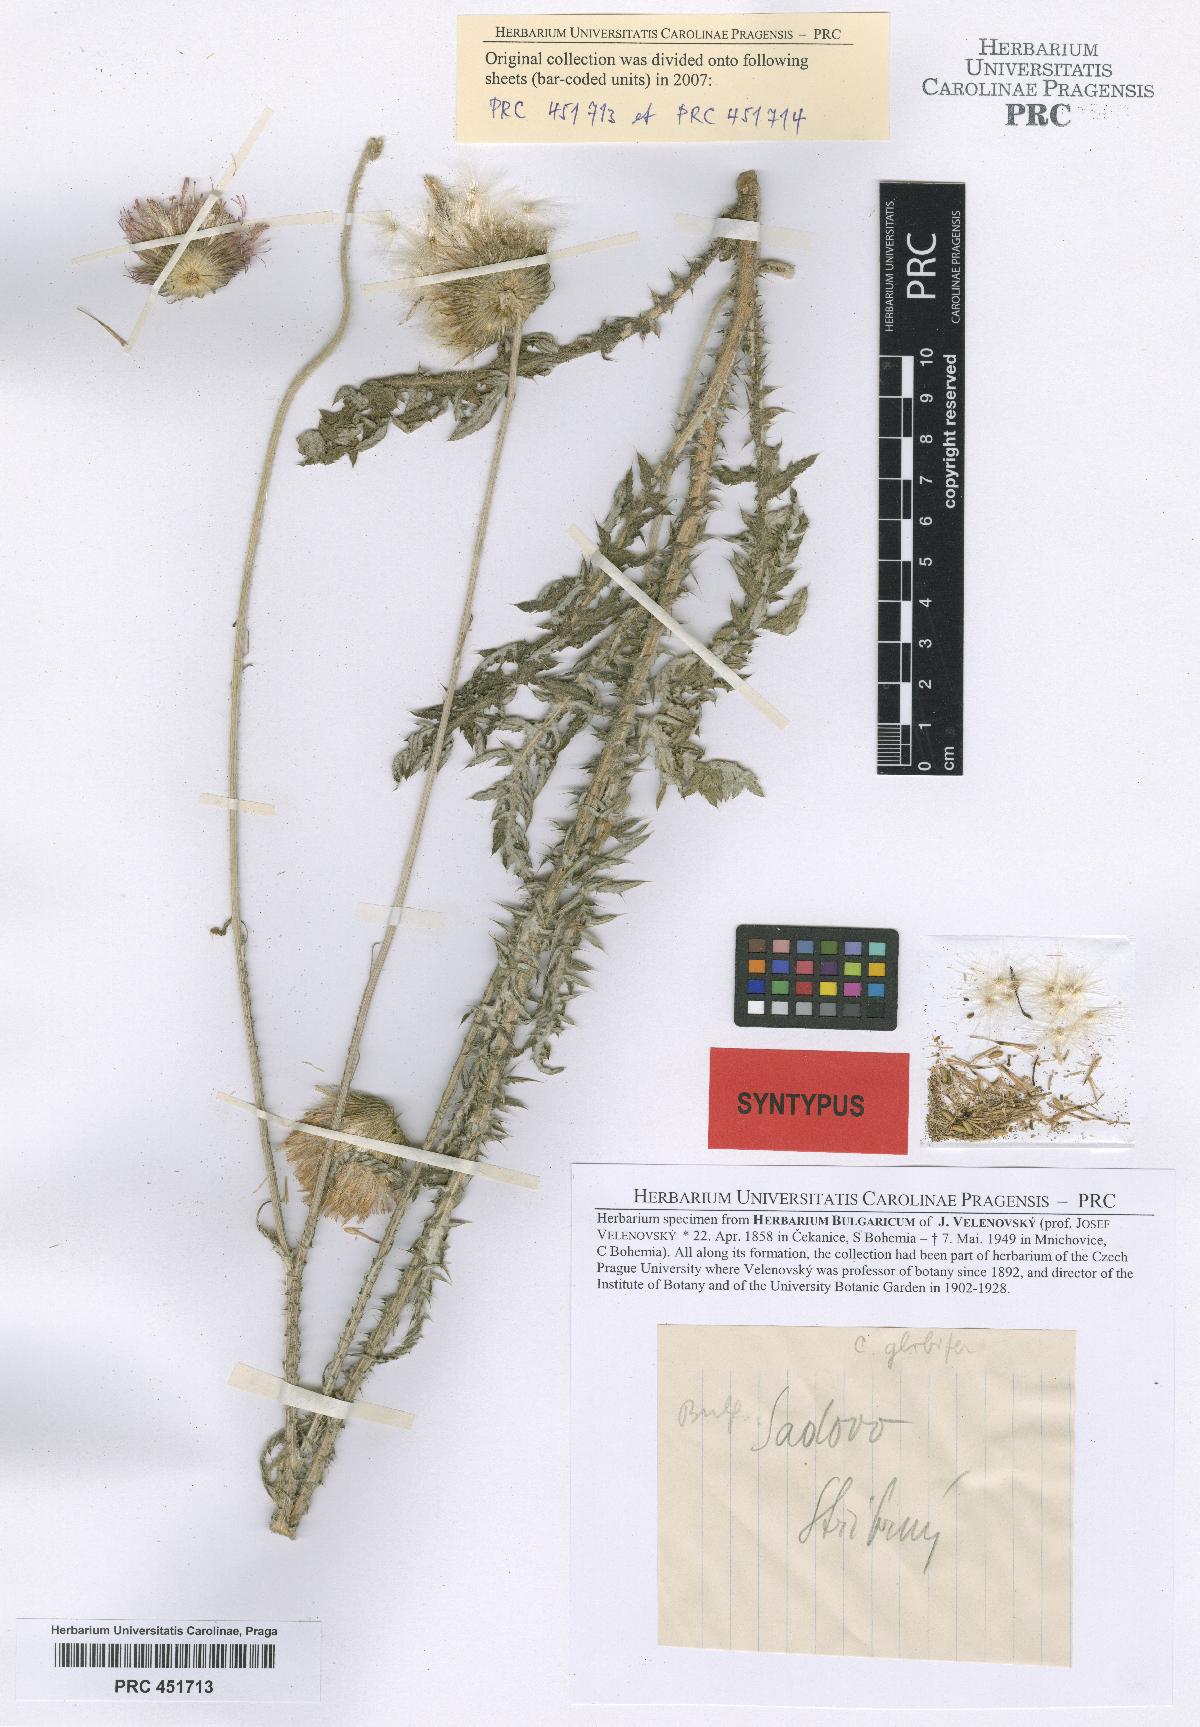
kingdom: Plantae
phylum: Tracheophyta
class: Magnoliopsida
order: Asterales
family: Asteraceae
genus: Carduus
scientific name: Carduus candicans
